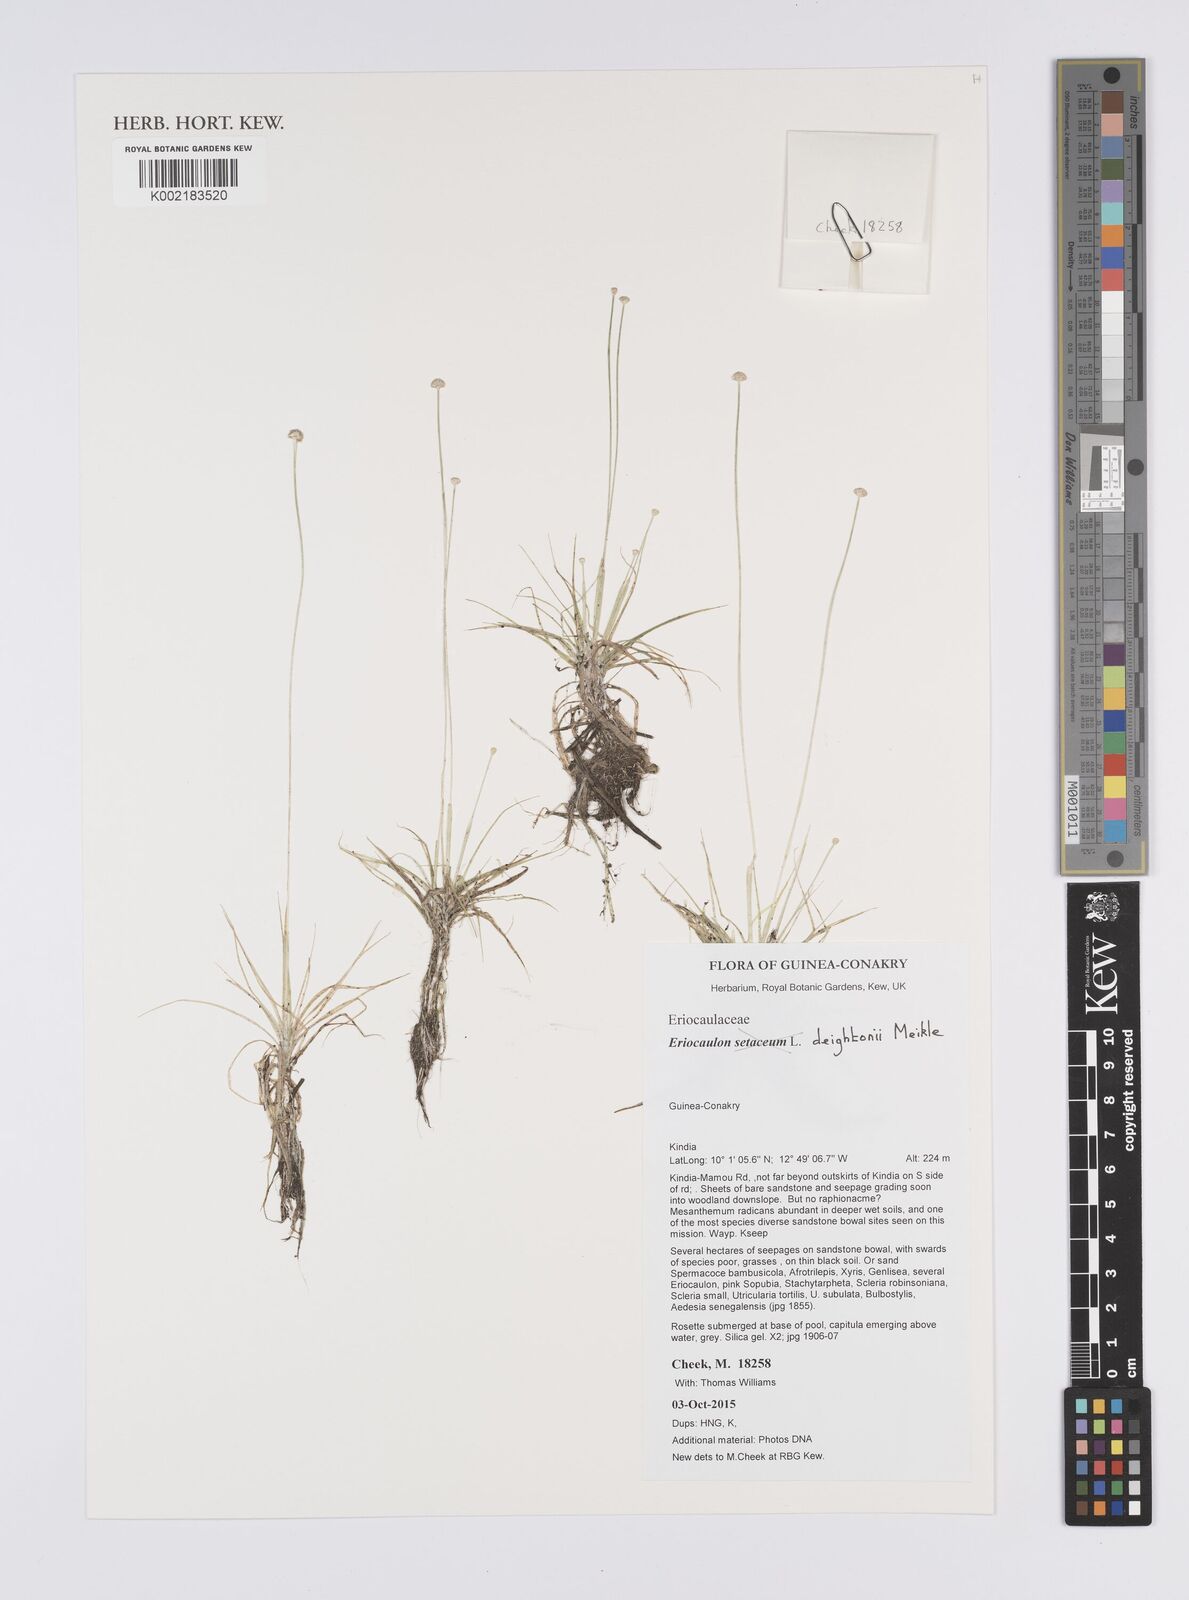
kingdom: Plantae
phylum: Tracheophyta
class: Liliopsida
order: Poales
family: Eriocaulaceae
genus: Eriocaulon
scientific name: Eriocaulon deightonii
